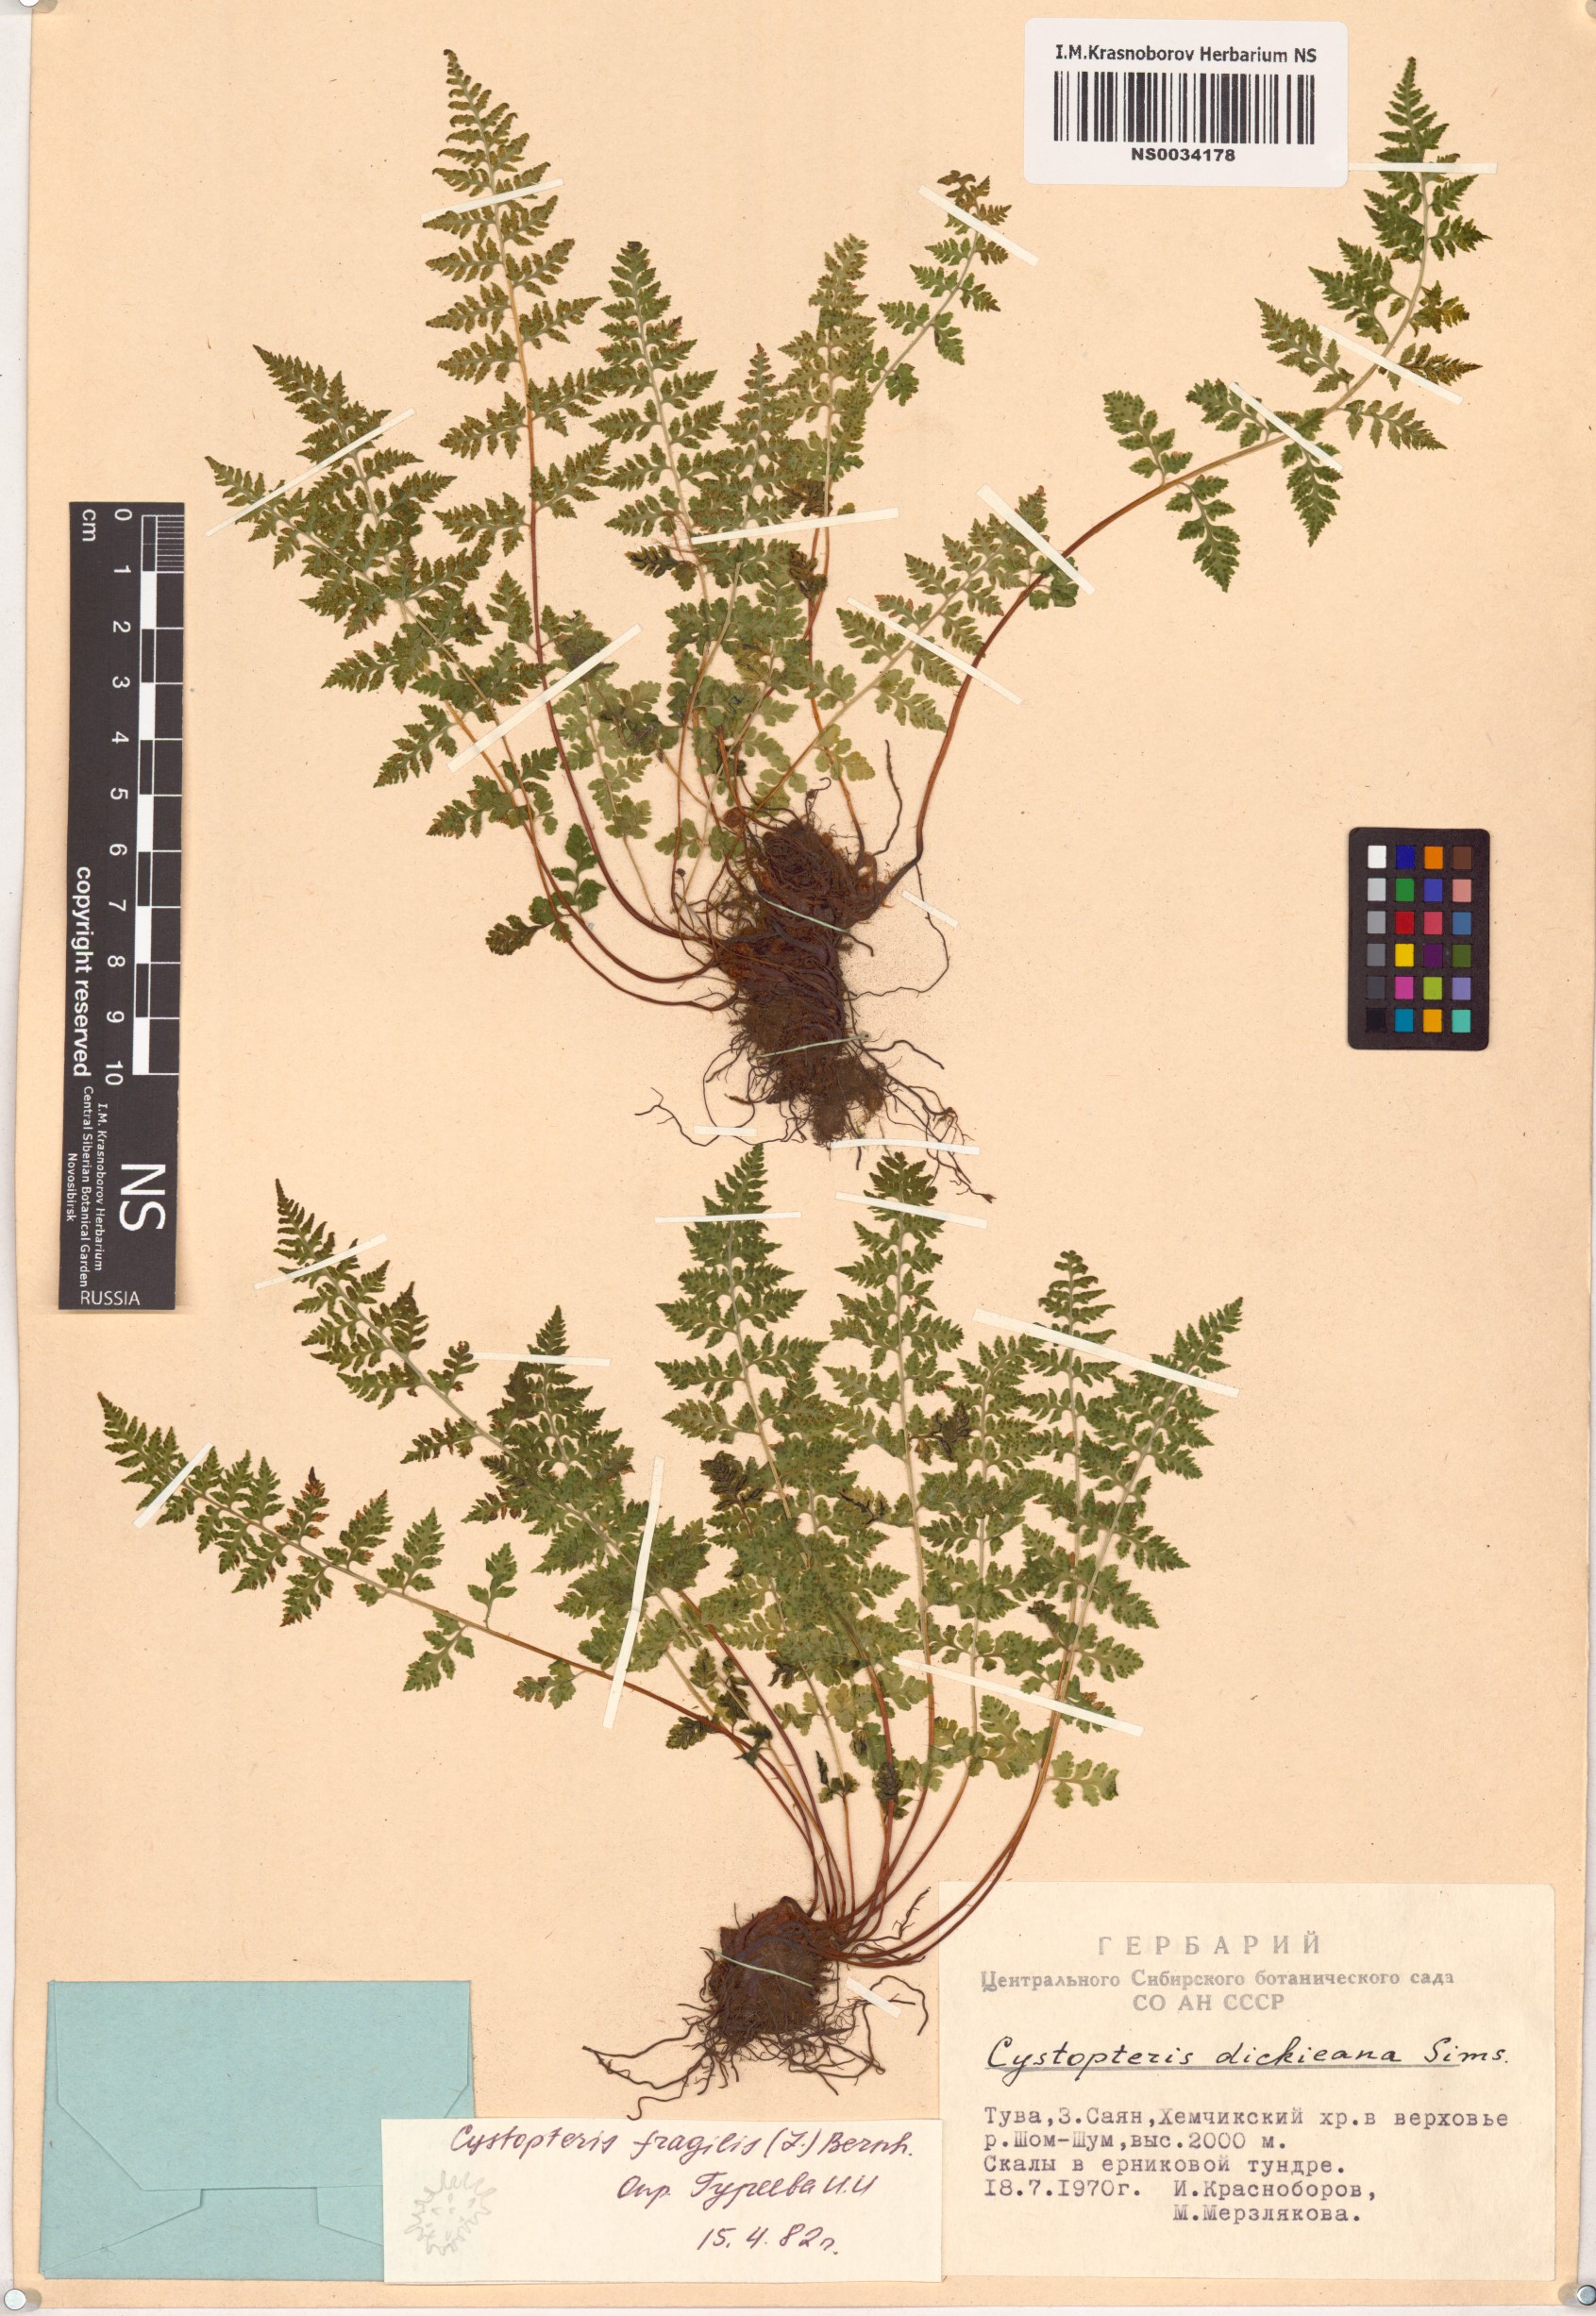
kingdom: Plantae
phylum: Tracheophyta
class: Polypodiopsida
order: Polypodiales
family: Cystopteridaceae
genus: Cystopteris
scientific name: Cystopteris fragilis
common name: Brittle bladder fern
